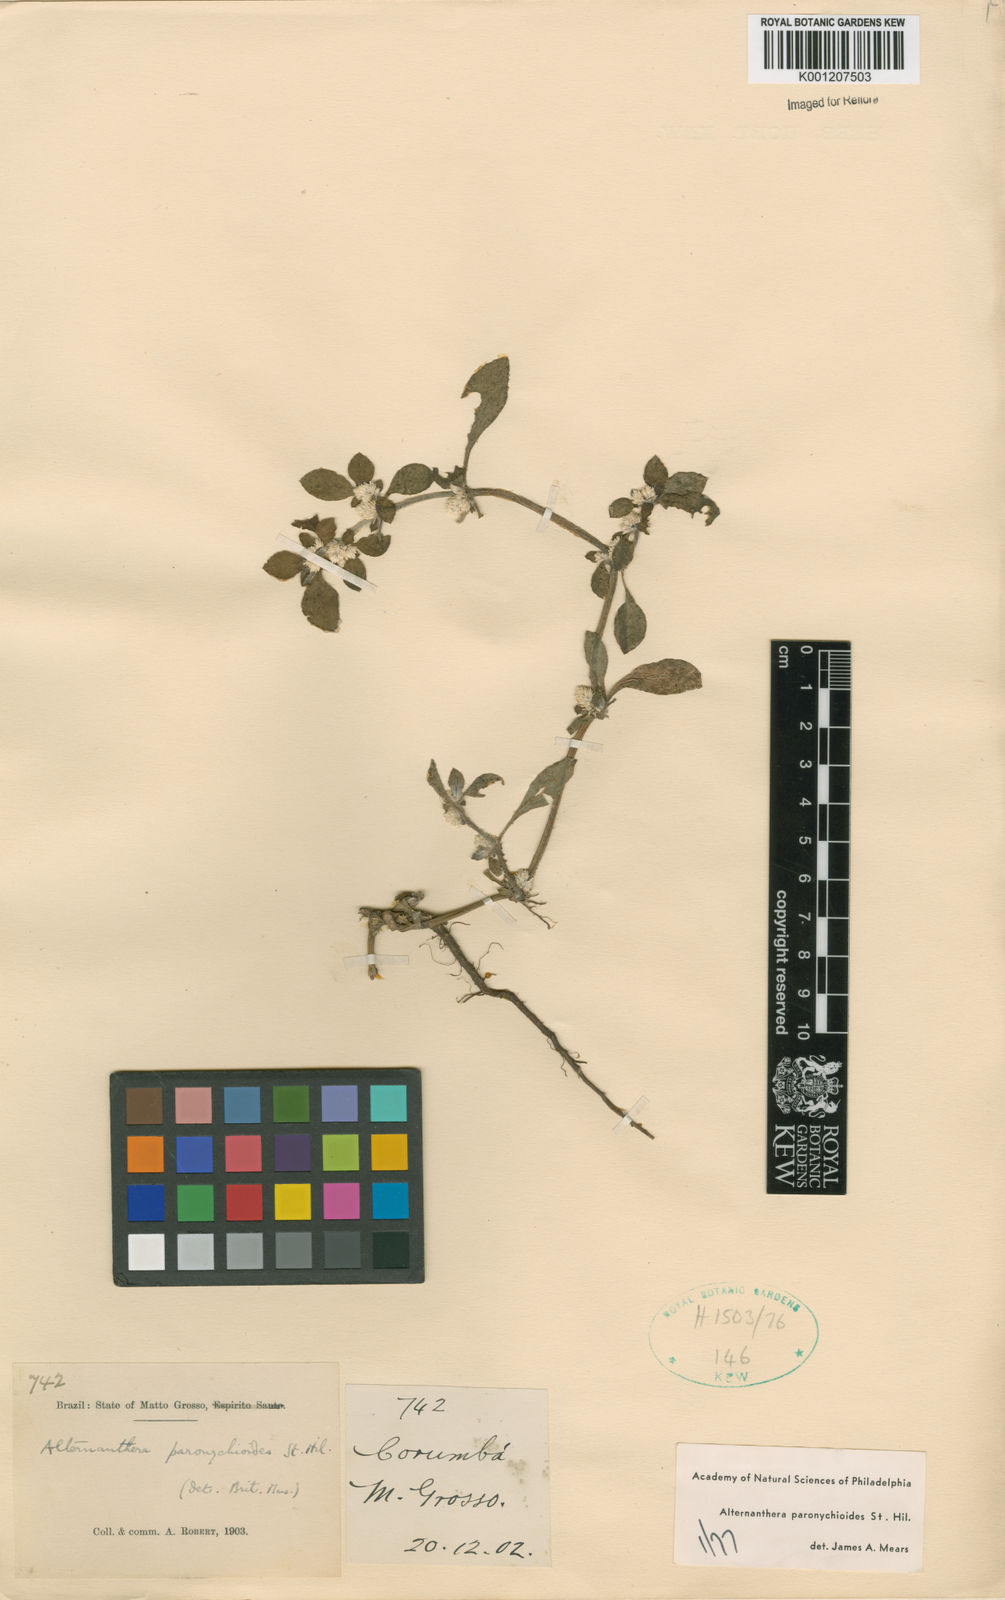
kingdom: Plantae
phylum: Tracheophyta
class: Magnoliopsida
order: Caryophyllales
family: Amaranthaceae
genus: Alternanthera
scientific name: Alternanthera paronychioides
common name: Smooth joyweed
